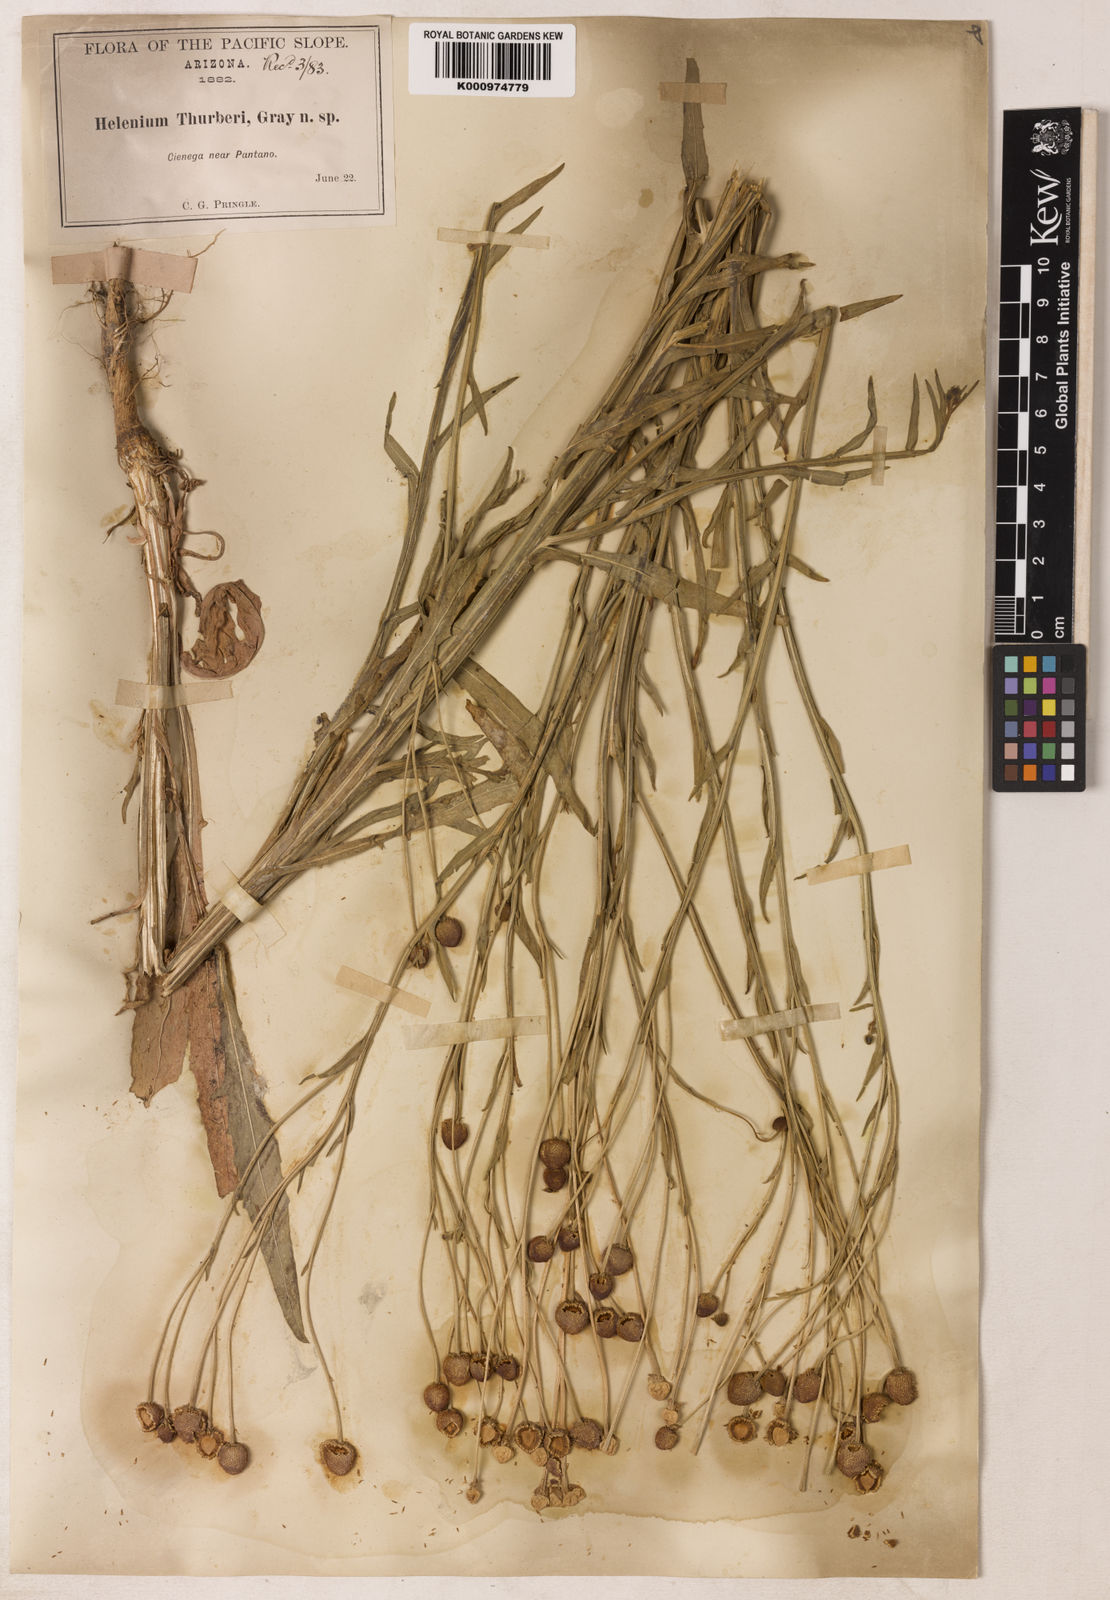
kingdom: Plantae
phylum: Tracheophyta
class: Magnoliopsida
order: Asterales
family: Asteraceae
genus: Helenium
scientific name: Helenium thurberi
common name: Thurber's sneezeweed
